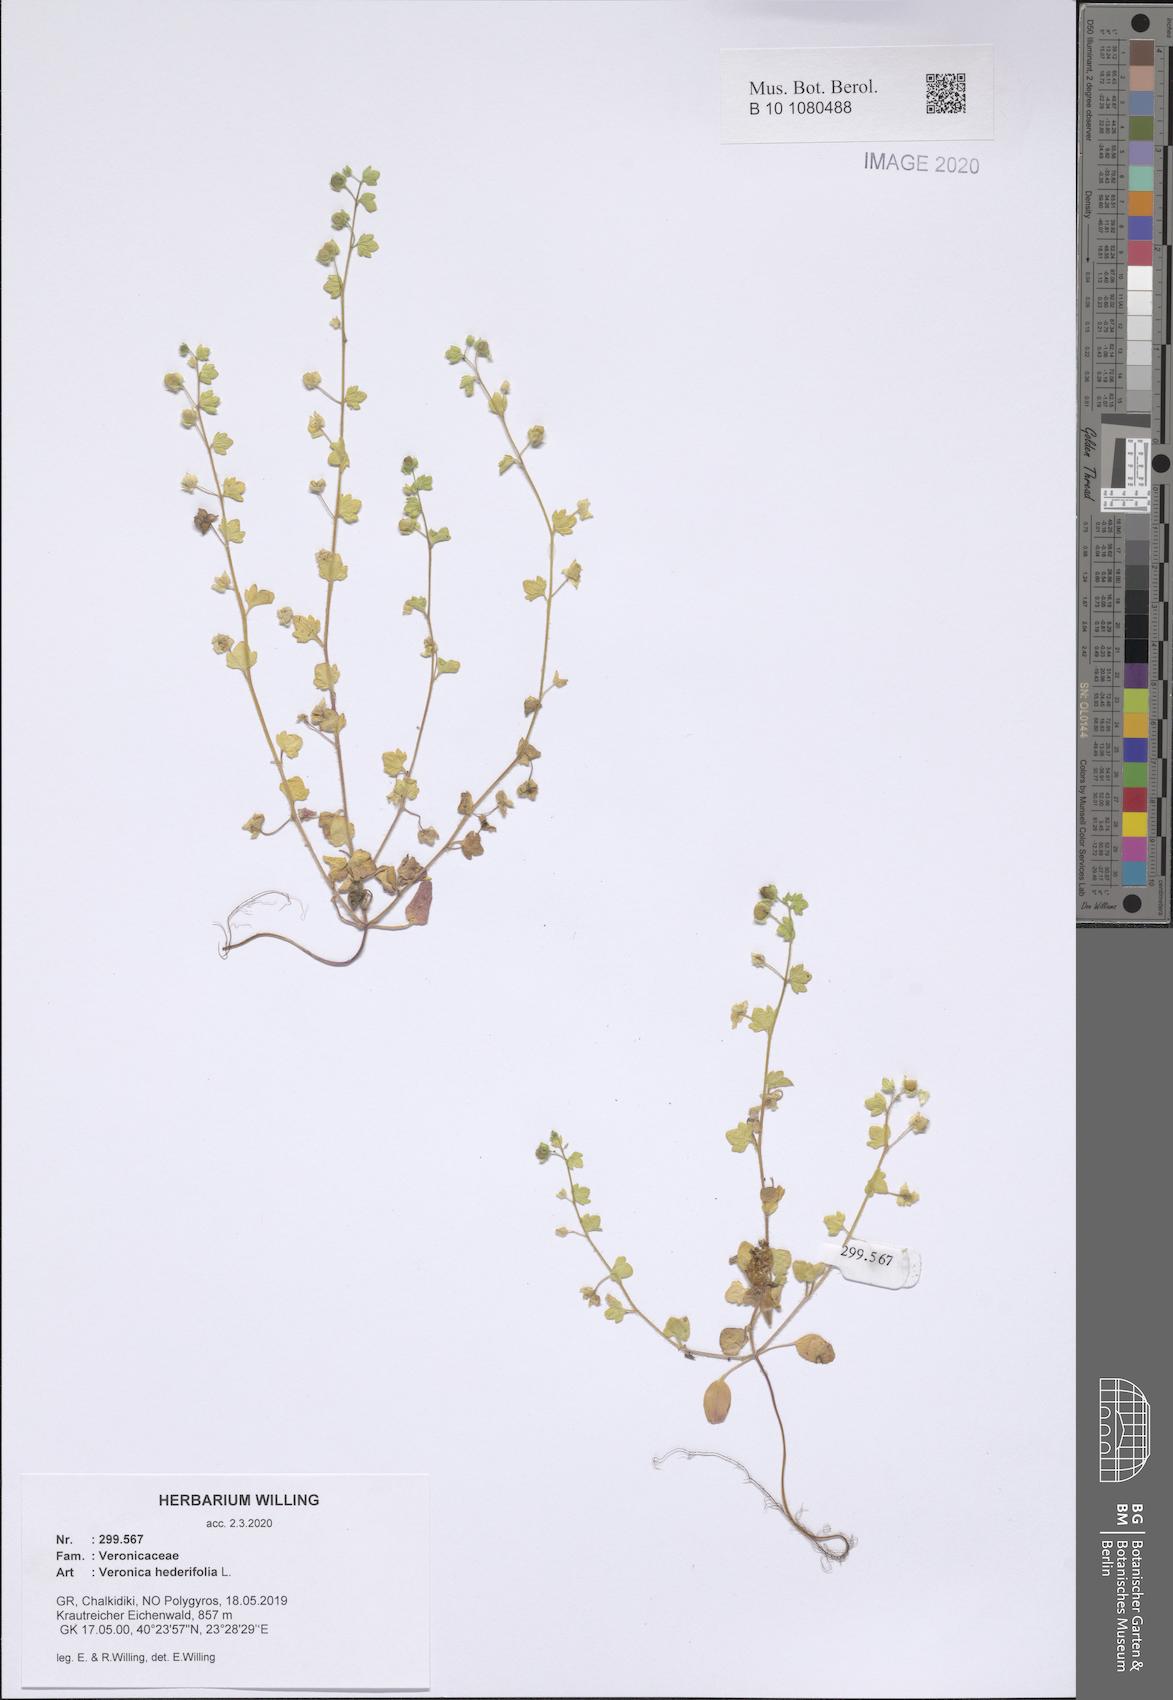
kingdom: Plantae
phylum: Tracheophyta
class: Magnoliopsida
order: Lamiales
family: Plantaginaceae
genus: Veronica
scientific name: Veronica hederifolia
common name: Ivy-leaved speedwell
